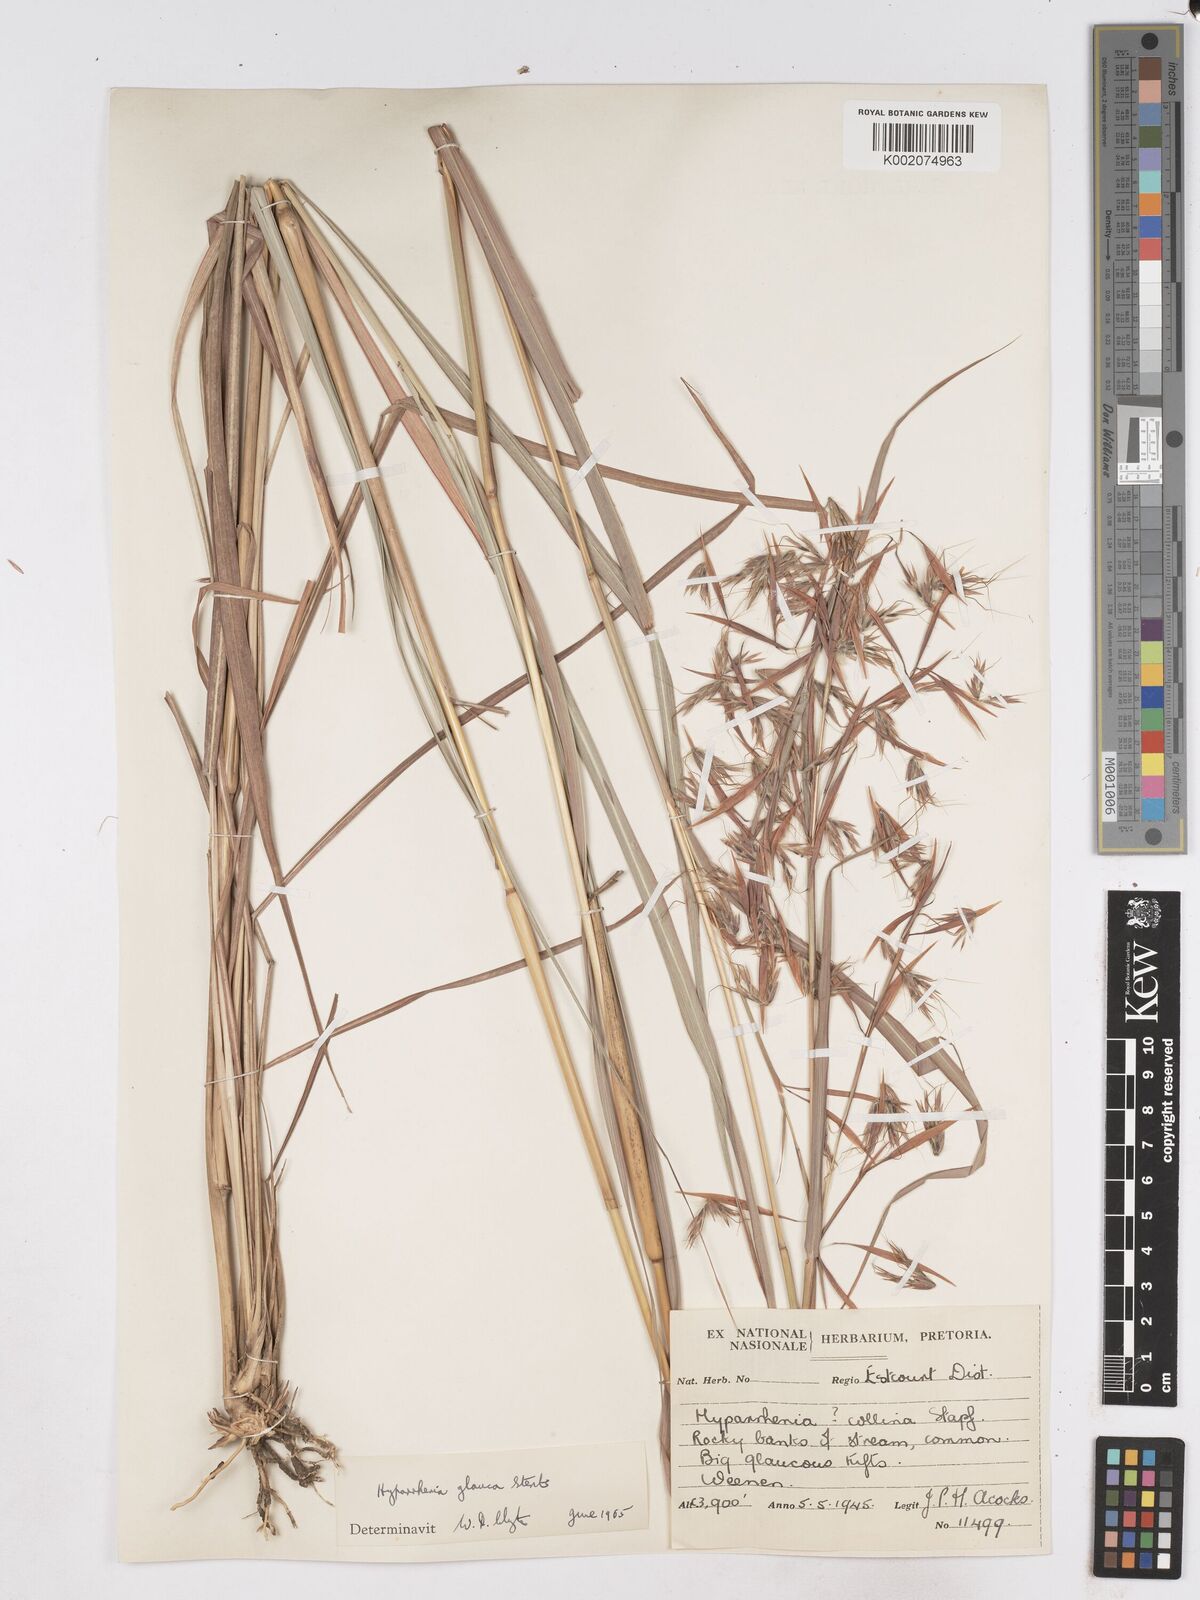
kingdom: Plantae
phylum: Tracheophyta
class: Liliopsida
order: Poales
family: Poaceae
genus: Hyparrhenia
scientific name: Hyparrhenia tamba
